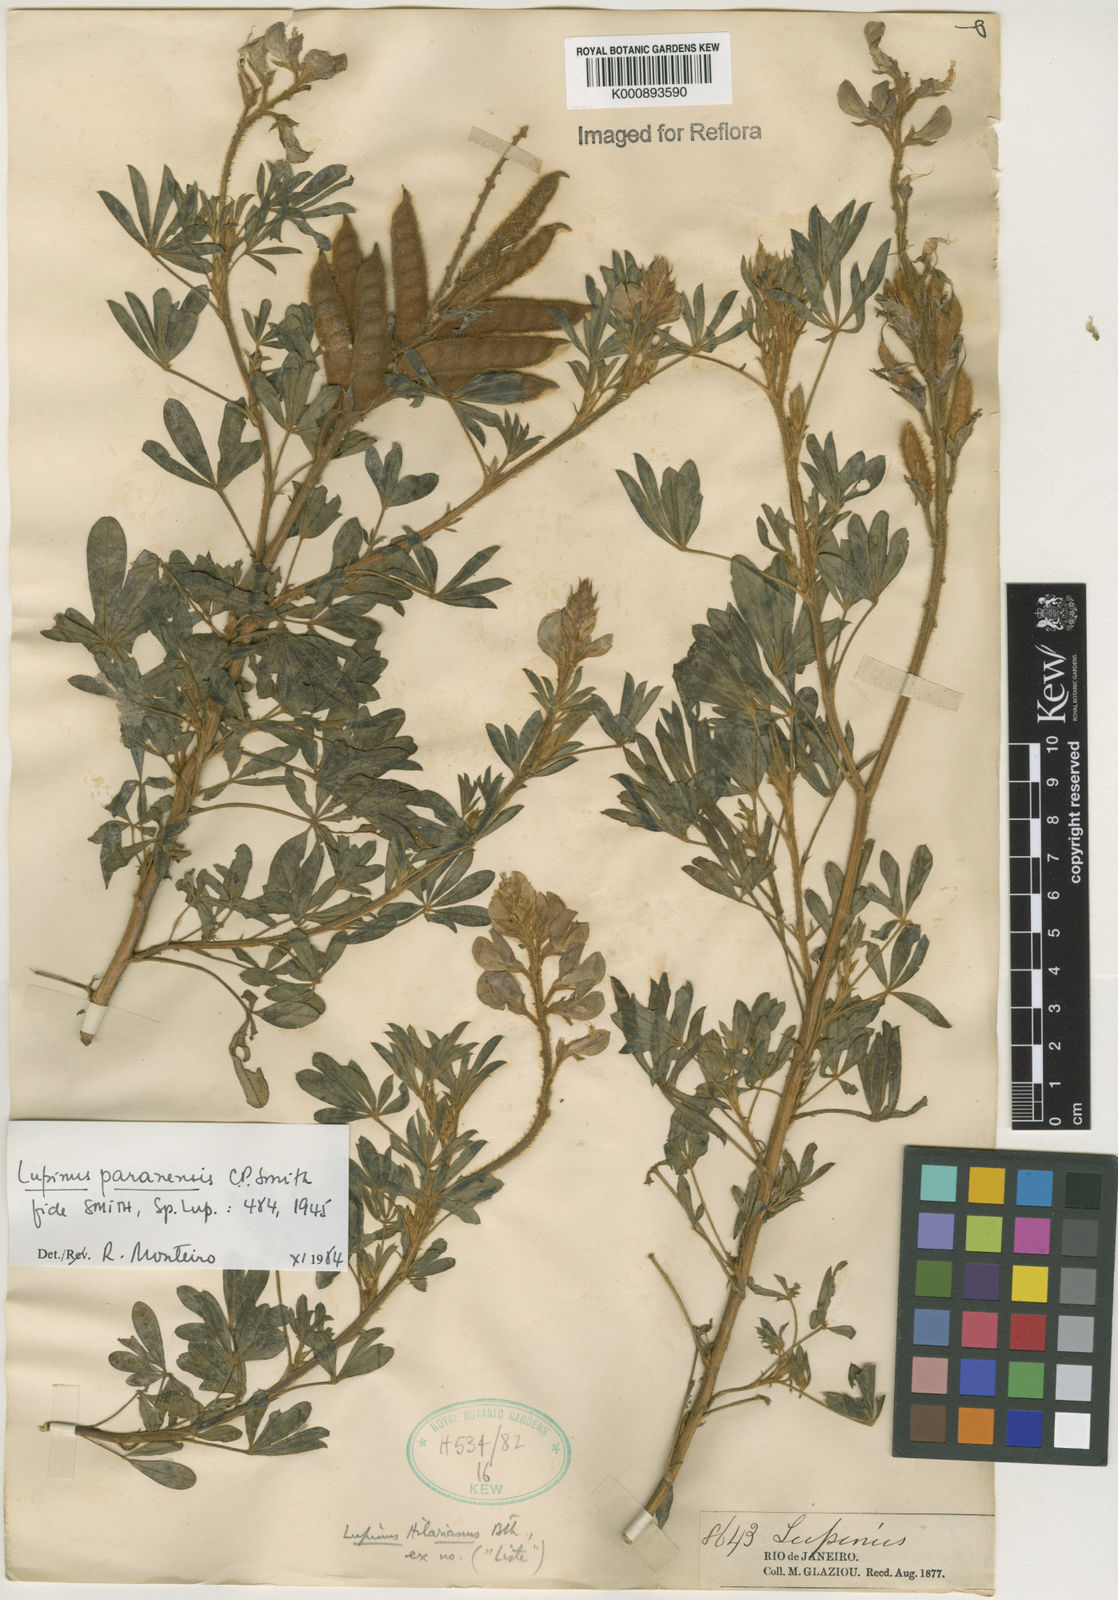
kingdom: Plantae
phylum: Tracheophyta
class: Magnoliopsida
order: Fabales
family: Fabaceae
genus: Lupinus
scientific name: Lupinus paranensis
